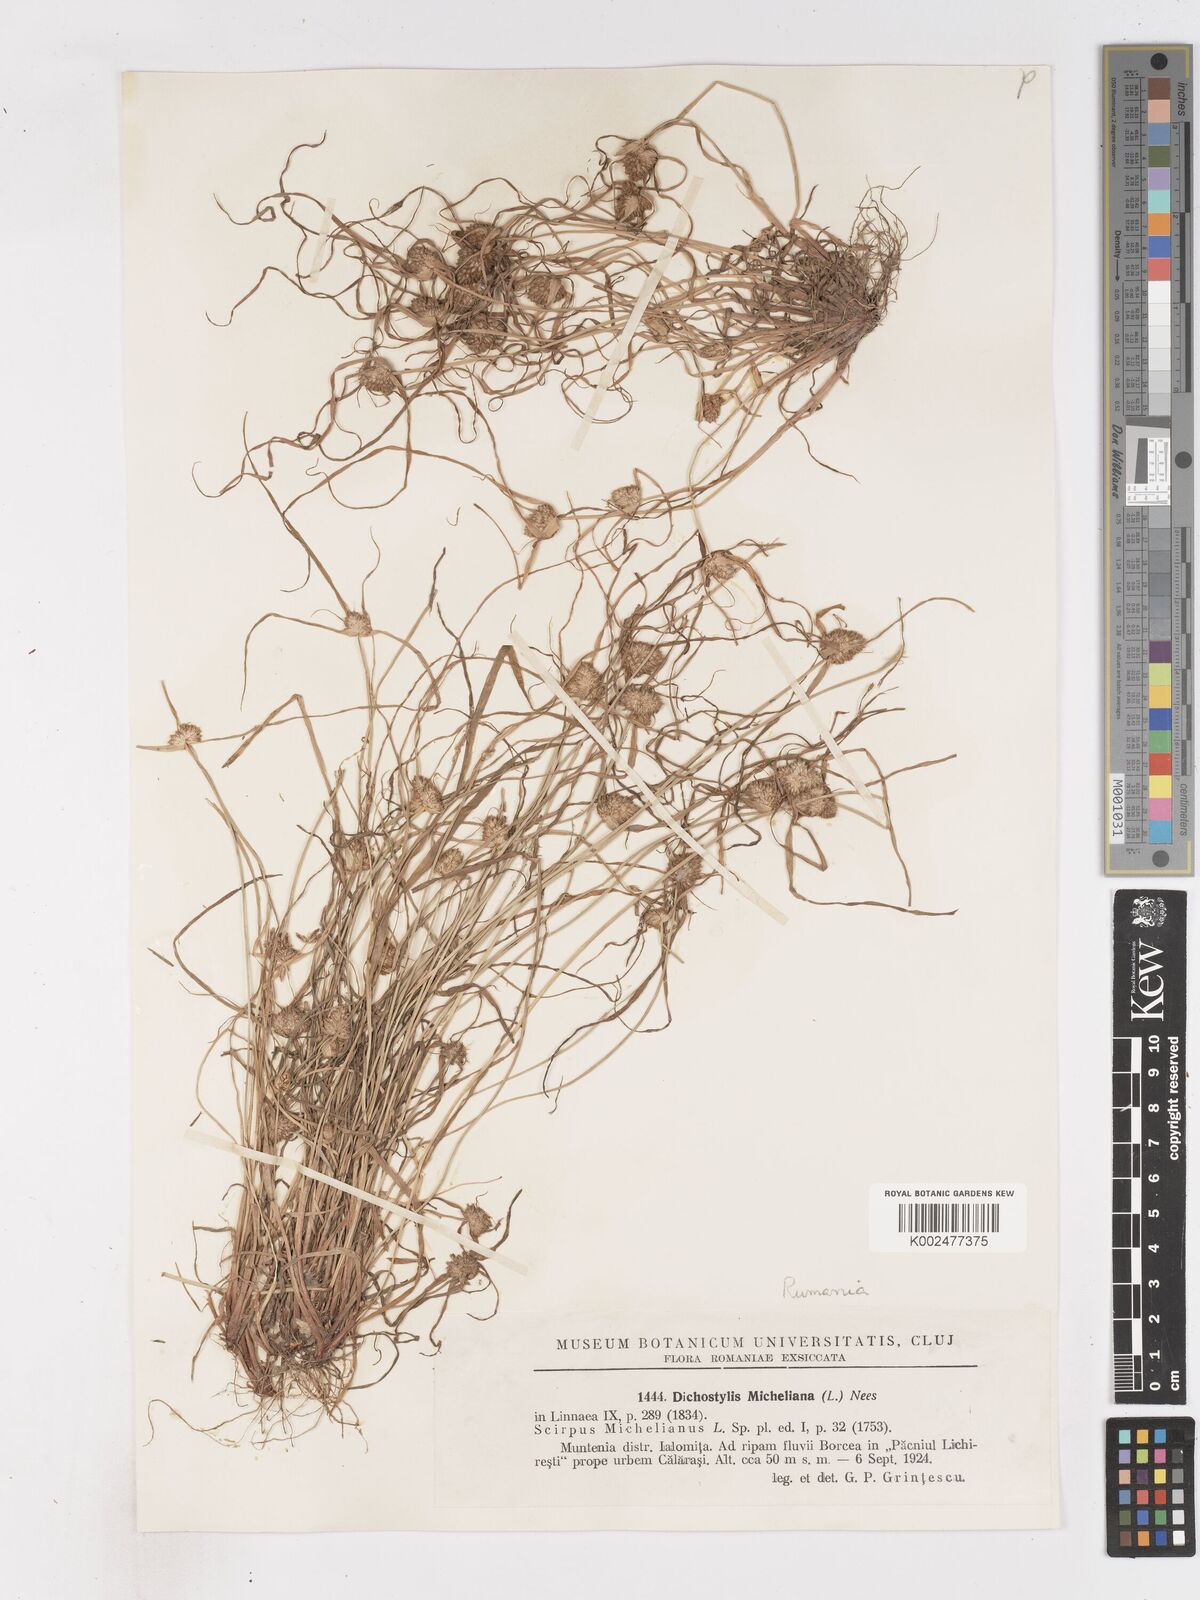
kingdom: Plantae
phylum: Tracheophyta
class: Liliopsida
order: Poales
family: Cyperaceae
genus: Cyperus
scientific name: Cyperus michelianus
